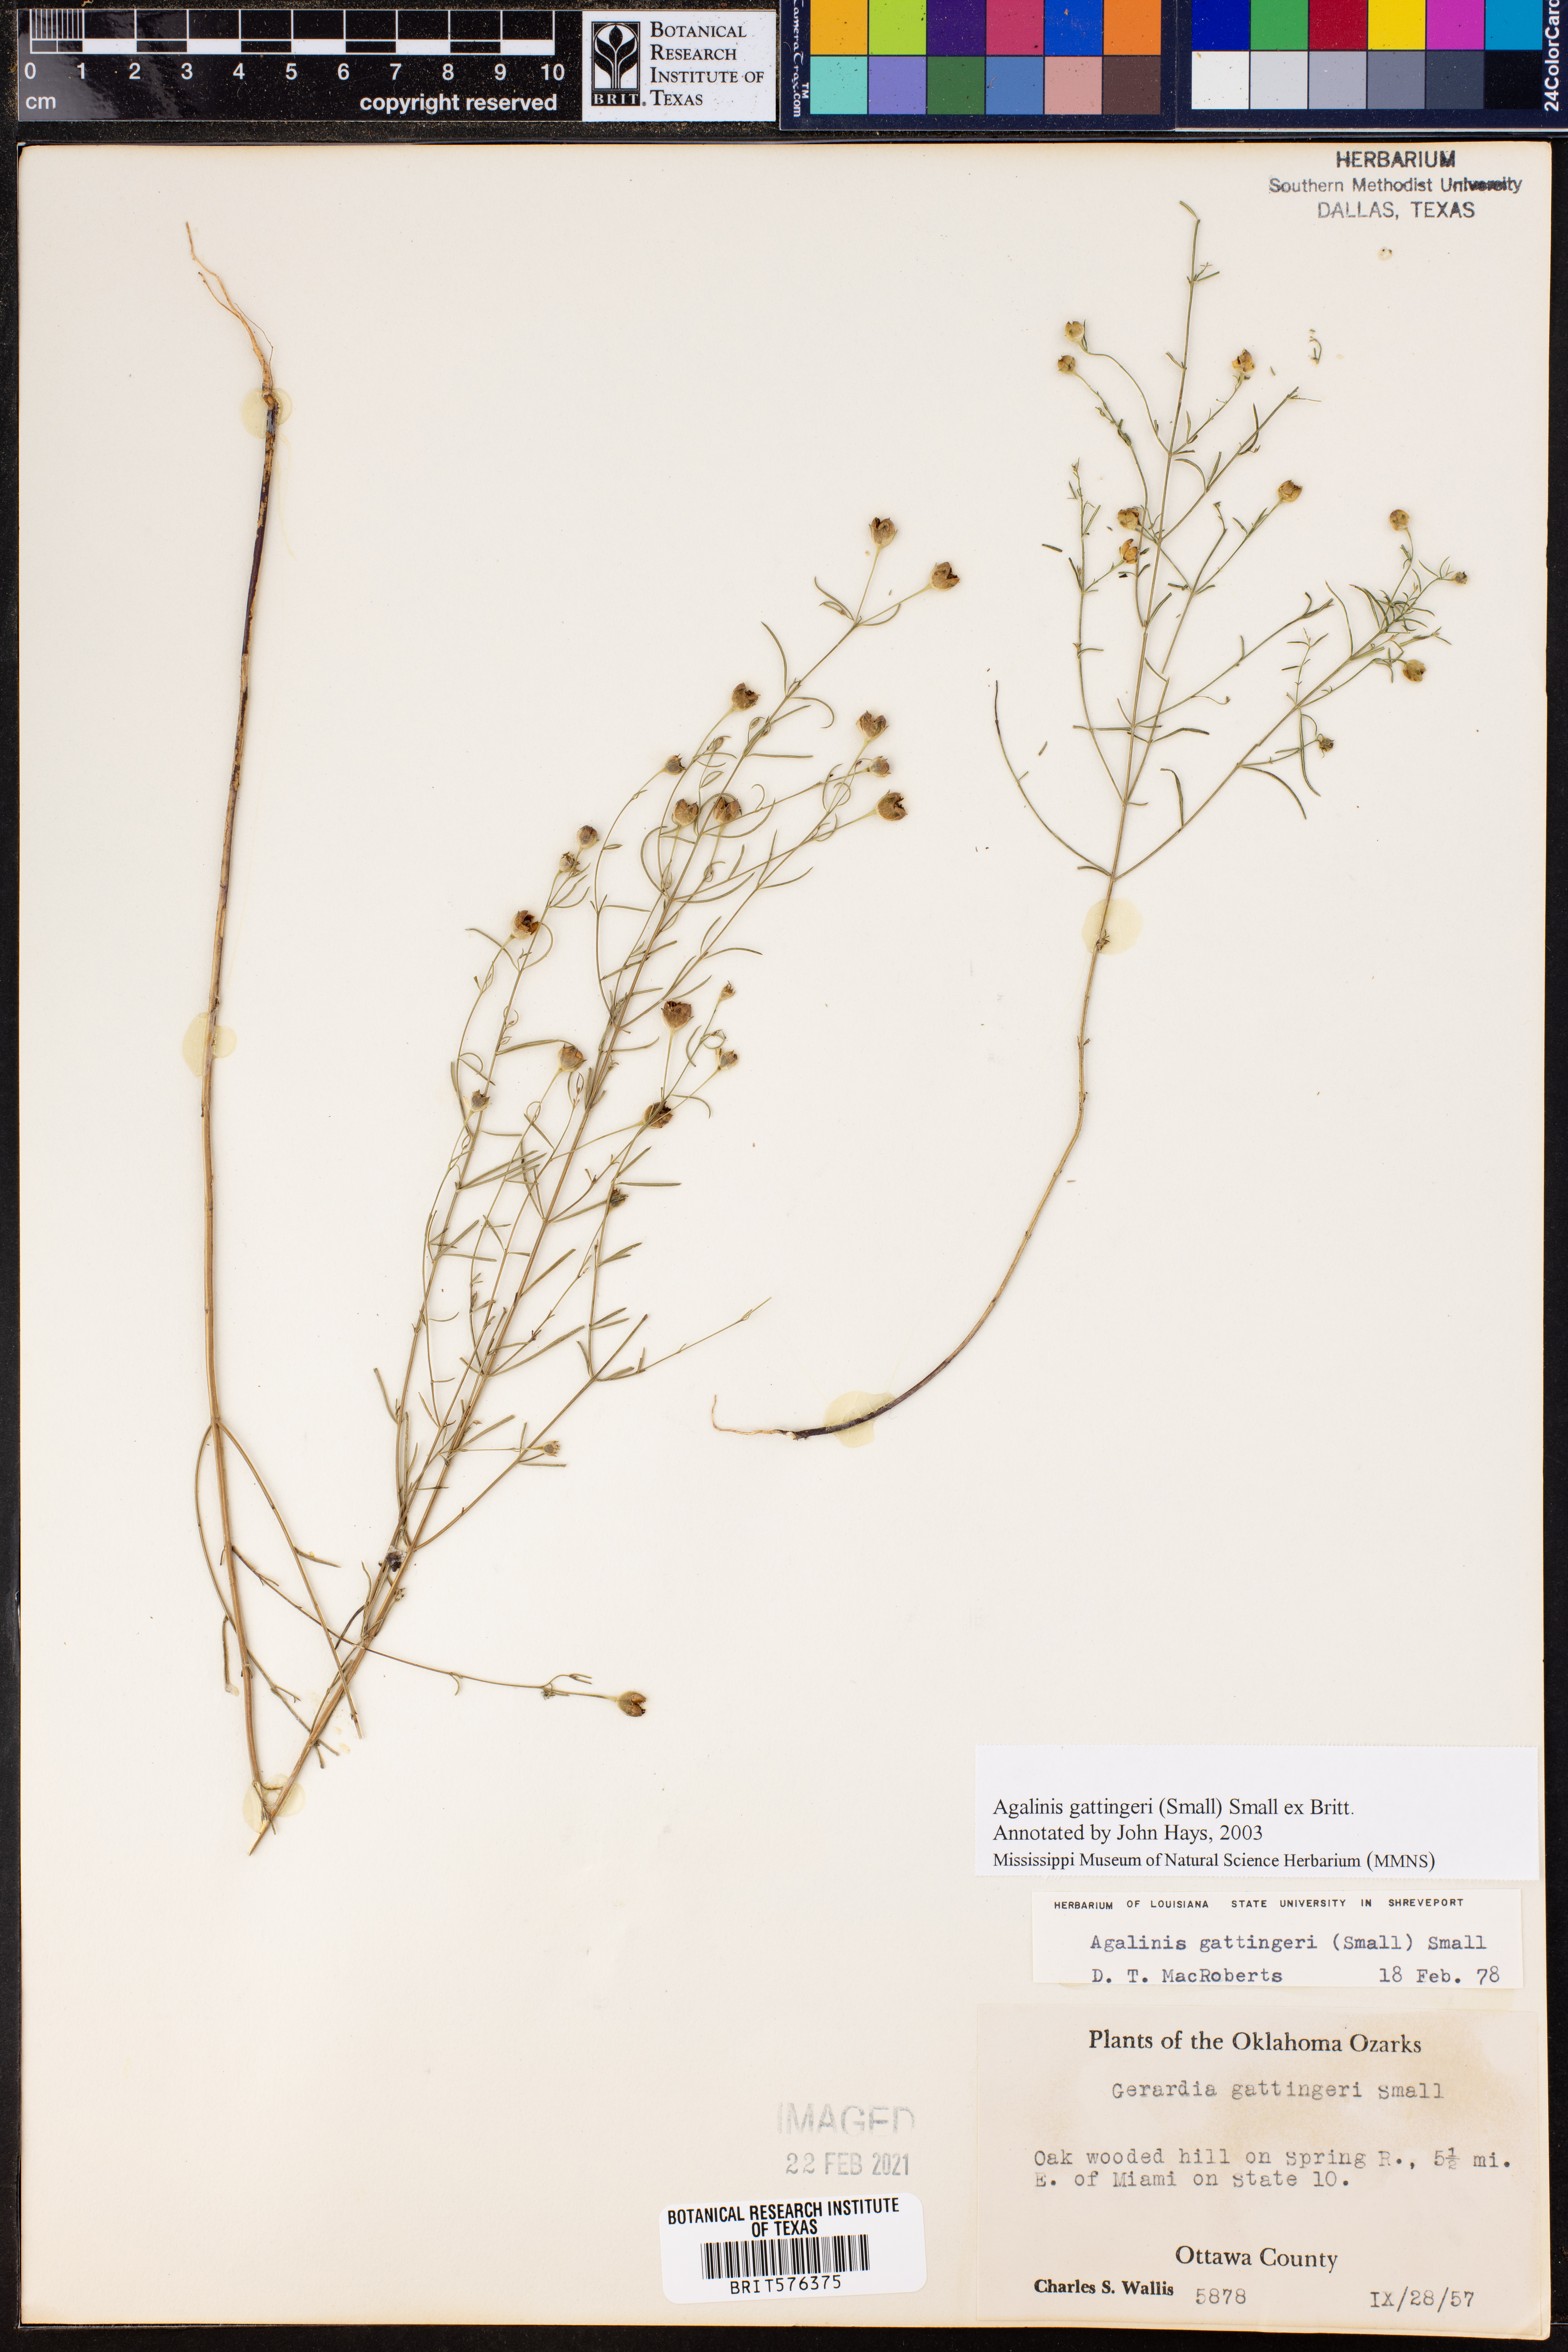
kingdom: Plantae
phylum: Tracheophyta
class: Magnoliopsida
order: Lamiales
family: Orobanchaceae
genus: Agalinis
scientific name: Agalinis gattingeri
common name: Gattinger's agalinis
